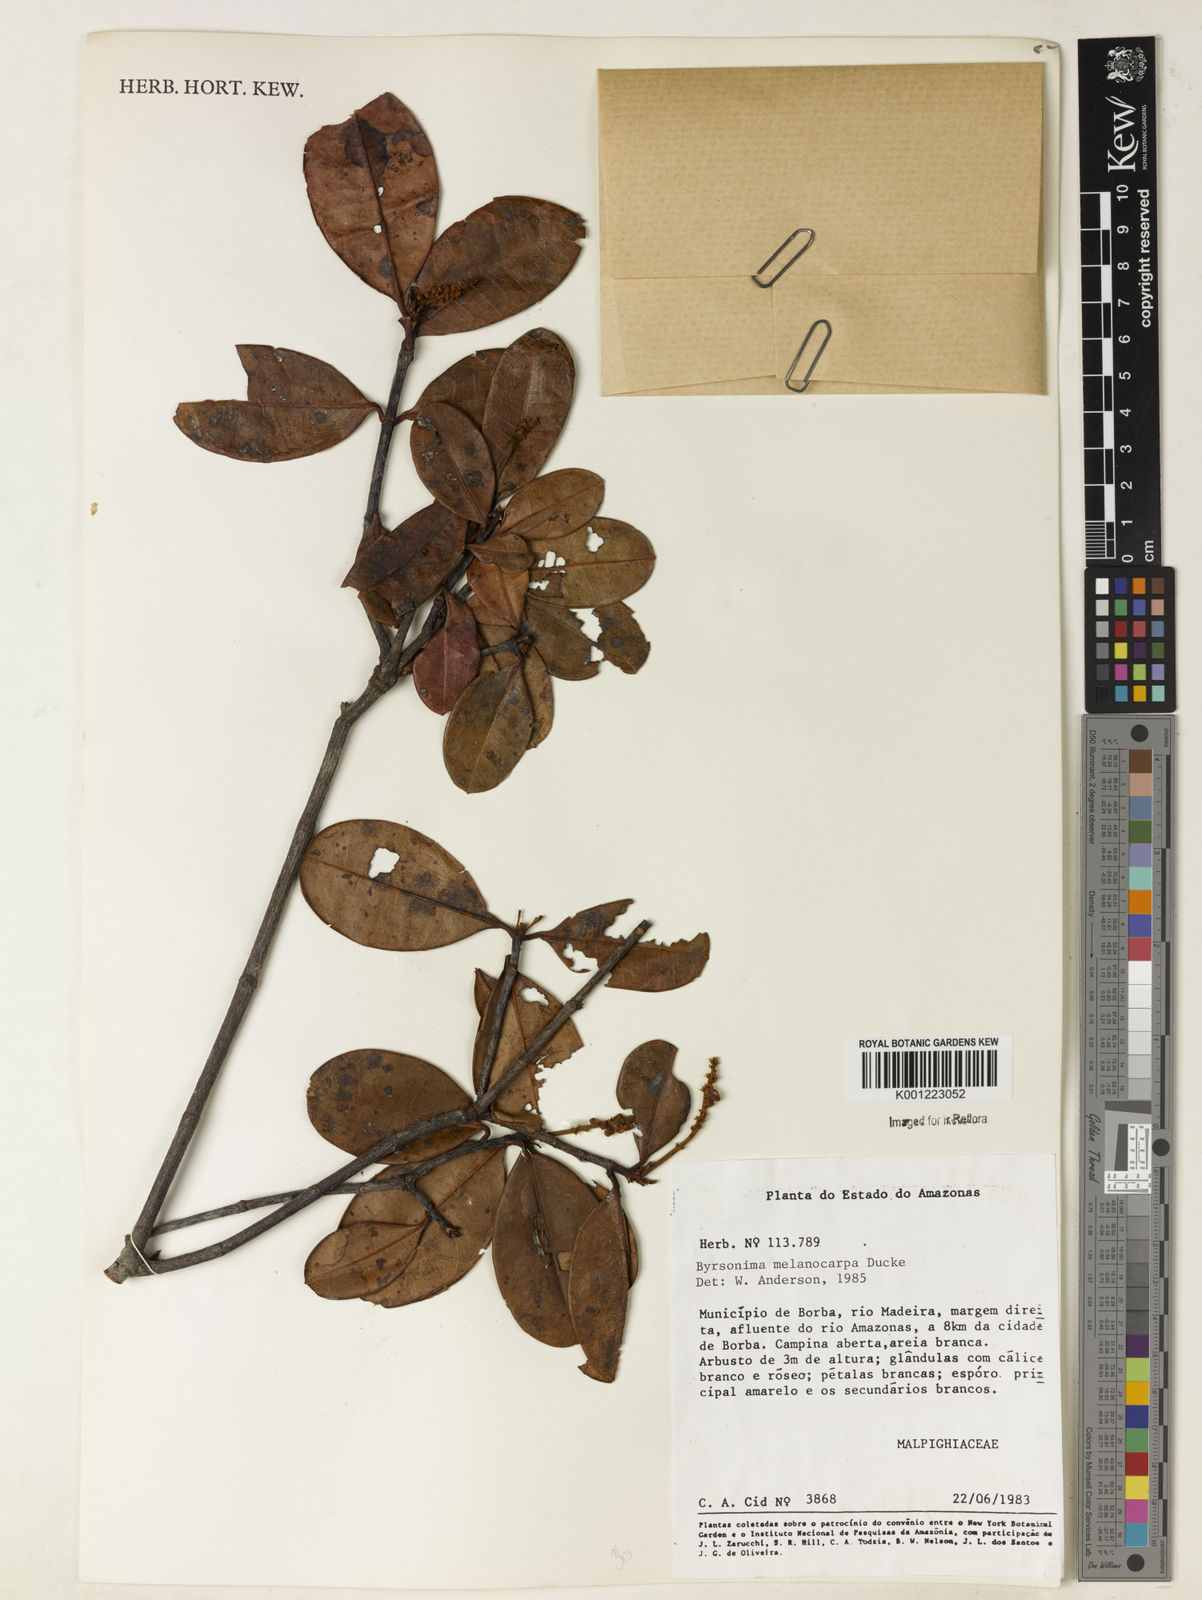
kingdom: Plantae
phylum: Tracheophyta
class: Magnoliopsida
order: Malpighiales
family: Malpighiaceae
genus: Byrsonima
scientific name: Byrsonima melanocarpa
